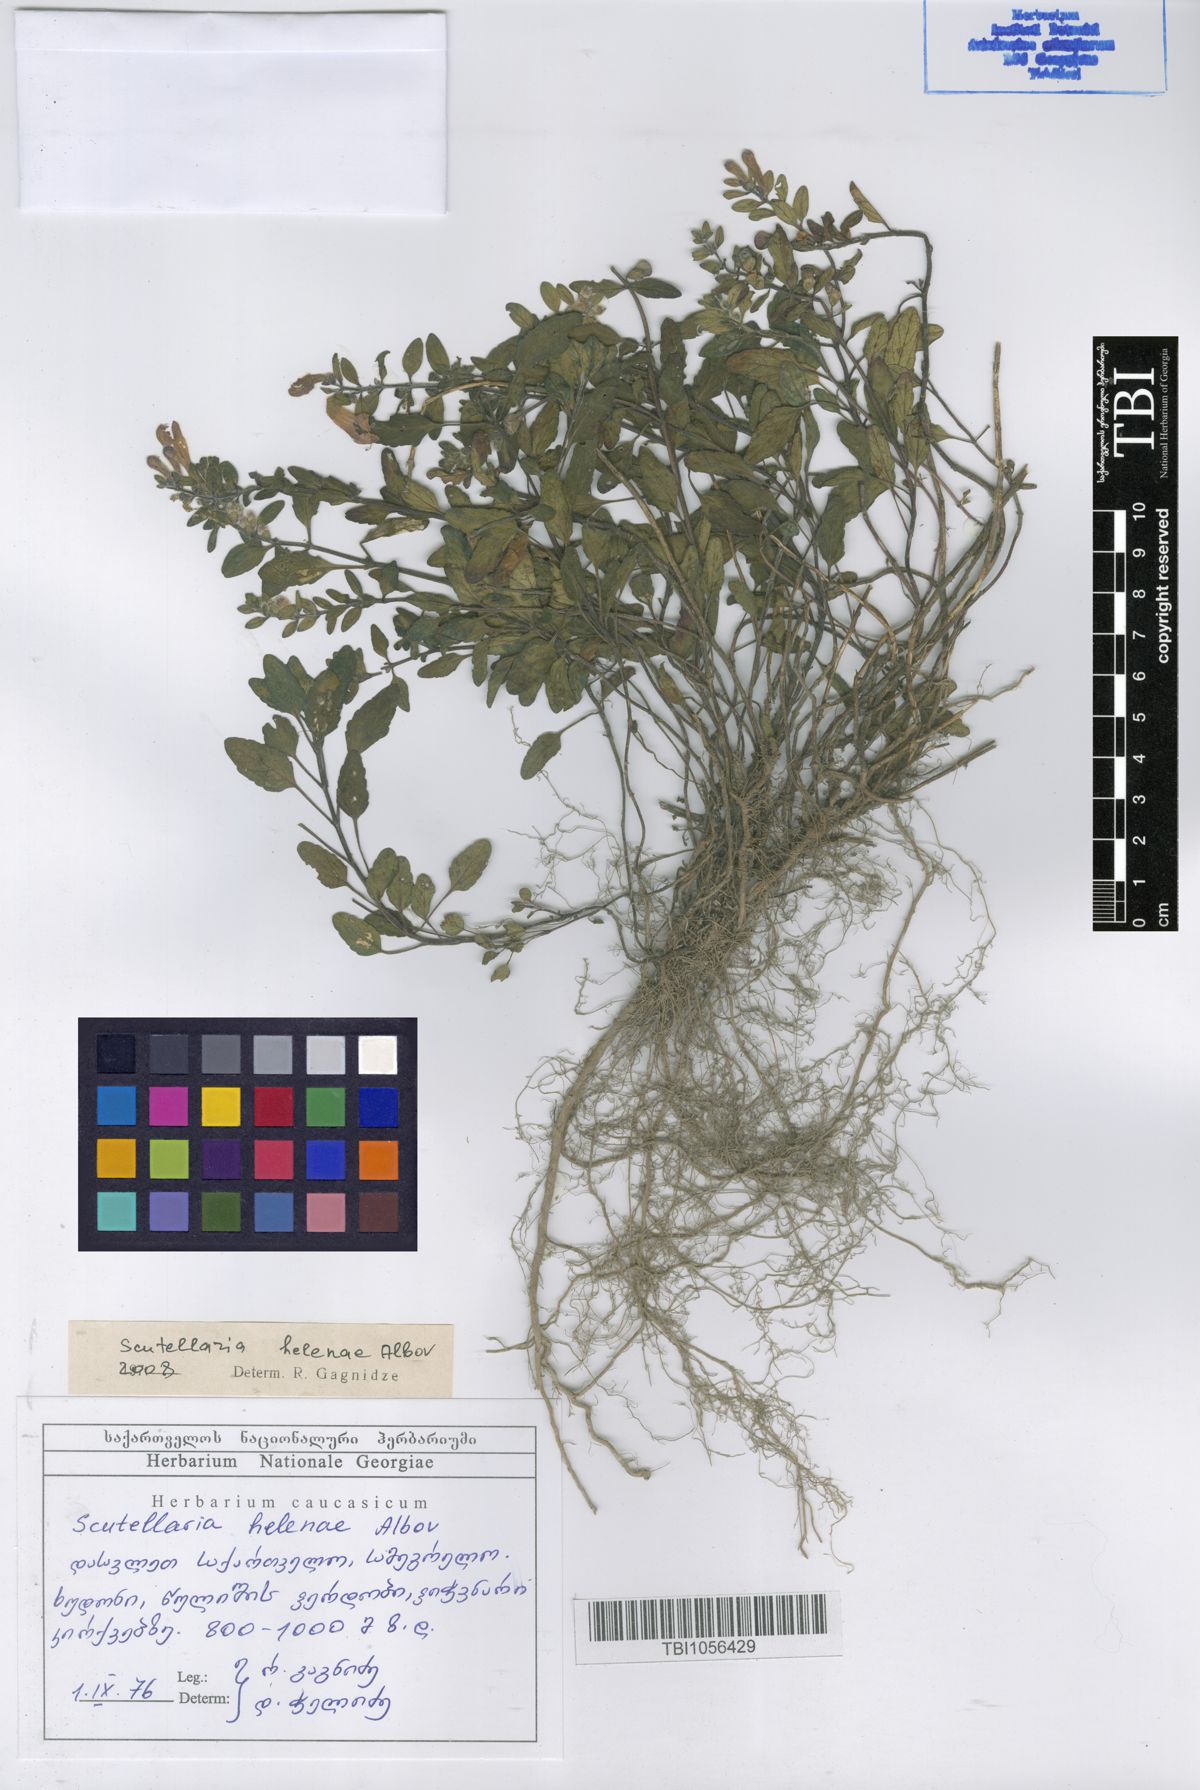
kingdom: Plantae
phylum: Tracheophyta
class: Magnoliopsida
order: Lamiales
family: Lamiaceae
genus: Scutellaria
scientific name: Scutellaria helenae
